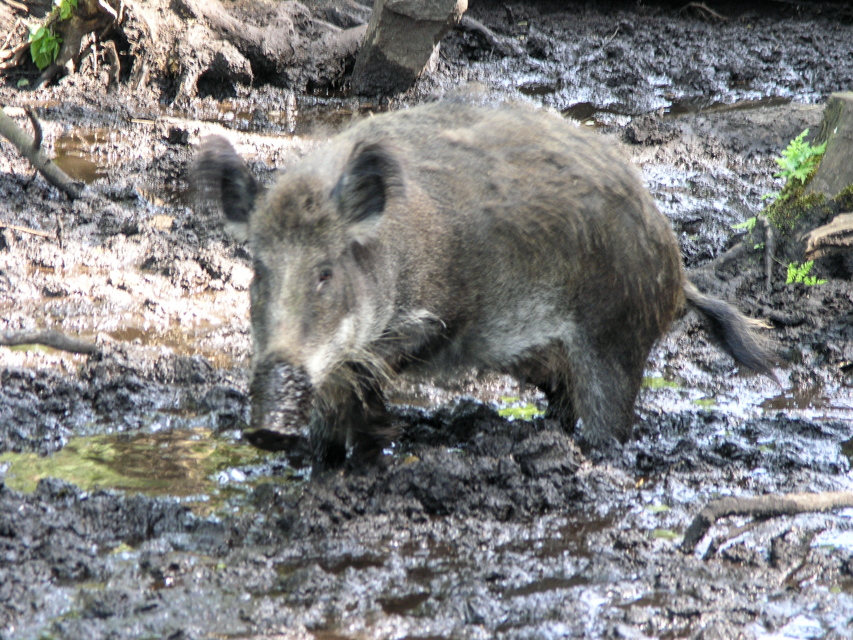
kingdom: Animalia
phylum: Chordata
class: Mammalia
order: Artiodactyla
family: Suidae
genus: Sus
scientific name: Sus scrofa
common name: Wild boar
